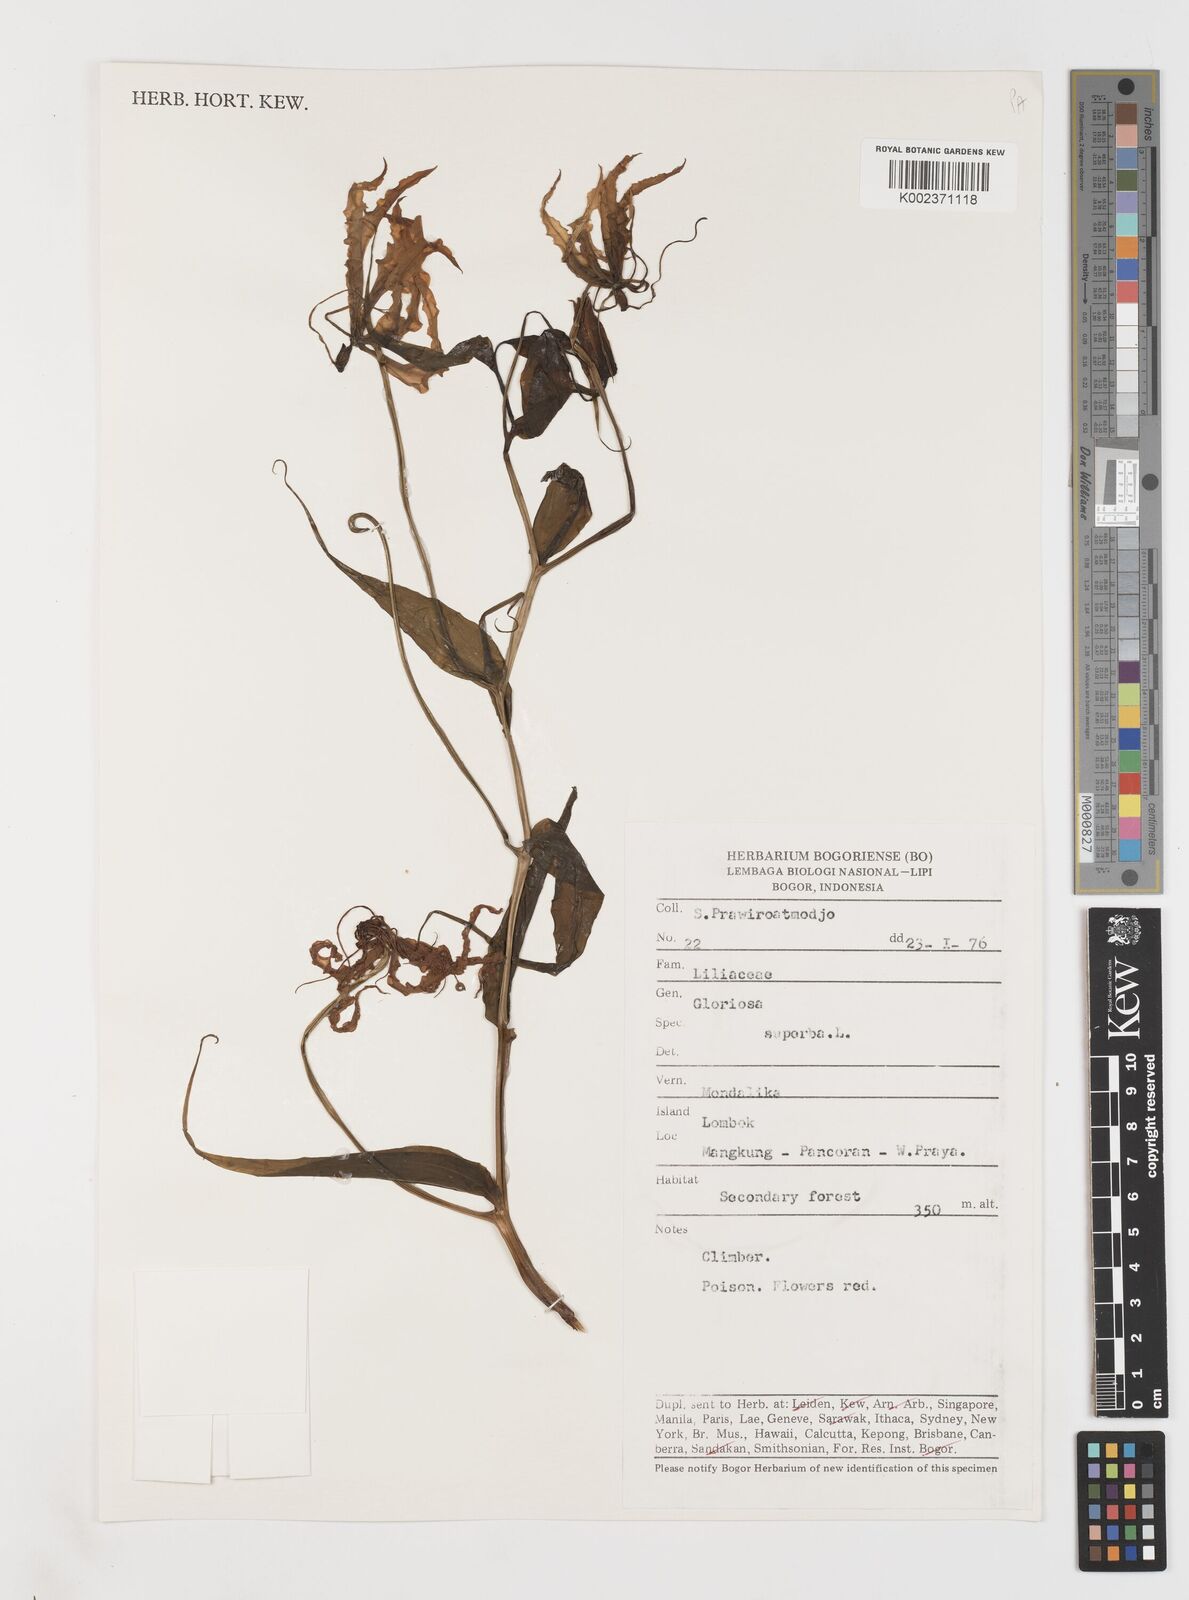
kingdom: Plantae
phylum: Tracheophyta
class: Liliopsida
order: Liliales
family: Colchicaceae
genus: Gloriosa
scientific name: Gloriosa superba
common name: Flame lily
